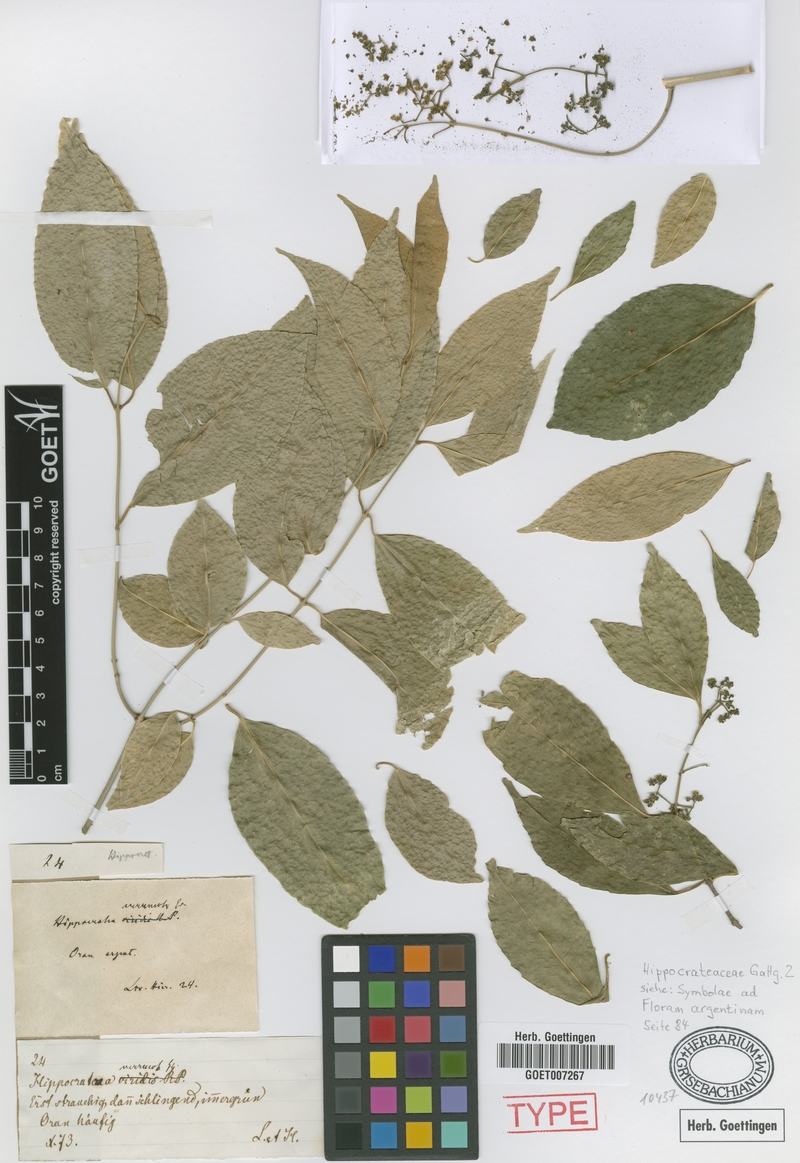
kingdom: Plantae
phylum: Tracheophyta
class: Magnoliopsida
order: Celastrales
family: Celastraceae
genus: Pristimera
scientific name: Pristimera celastroides
